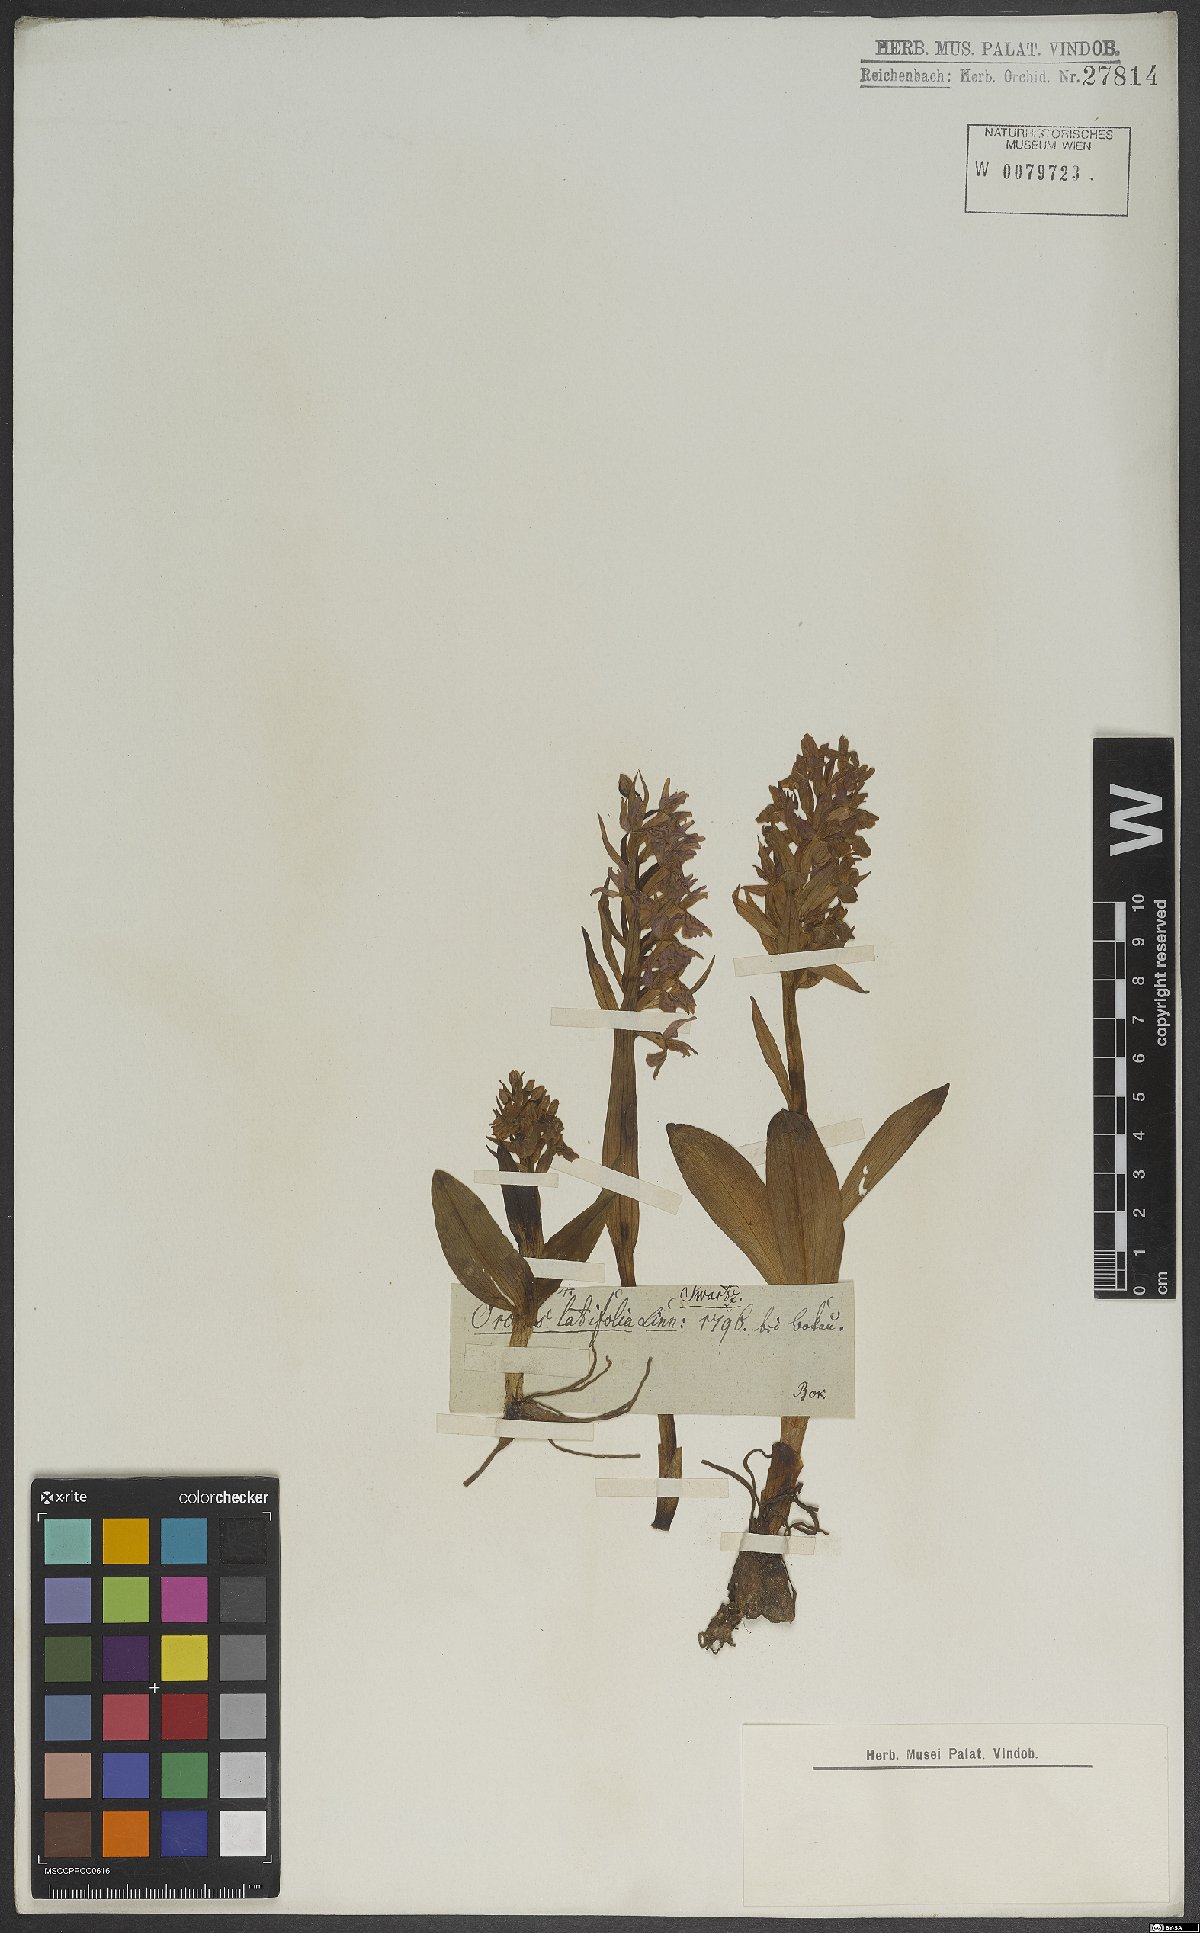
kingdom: Plantae
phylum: Tracheophyta
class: Liliopsida
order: Asparagales
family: Orchidaceae
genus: Dactylorhiza
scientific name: Dactylorhiza majalis
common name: Marsh orchid
